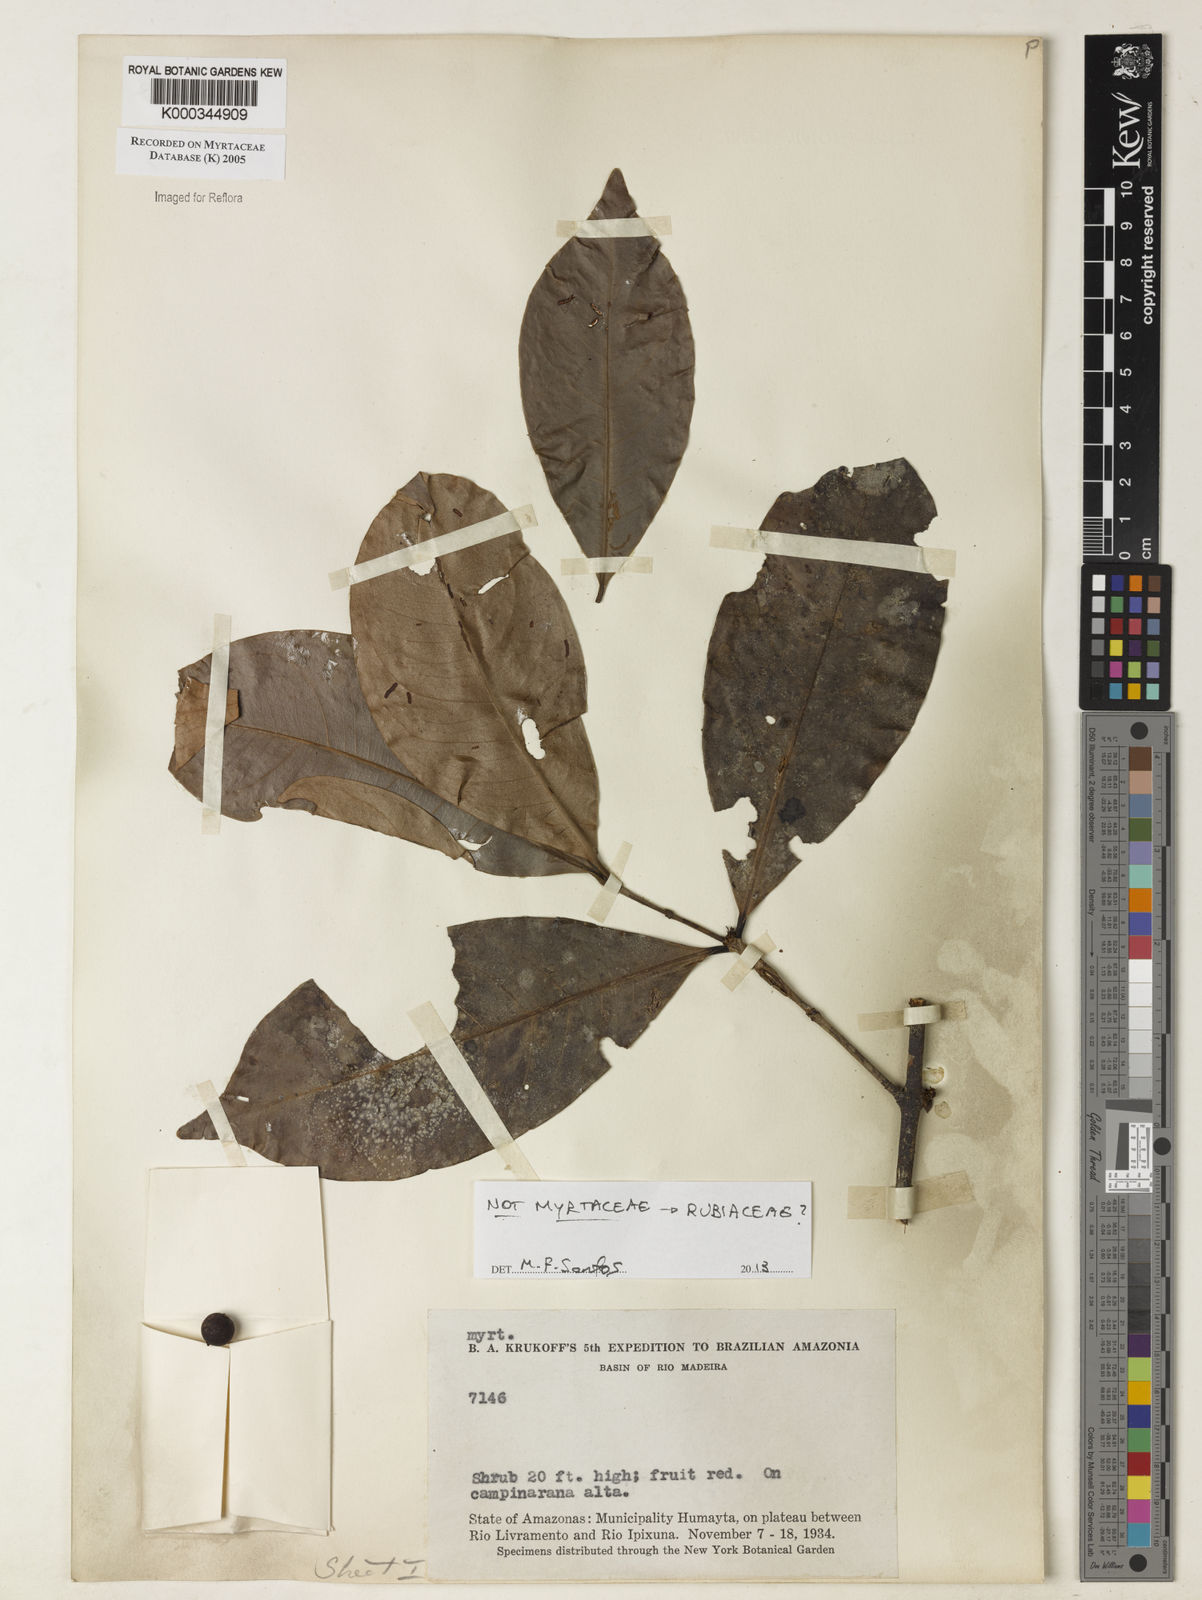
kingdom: Plantae
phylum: Tracheophyta
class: Magnoliopsida
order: Gentianales
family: Rubiaceae
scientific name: Rubiaceae
